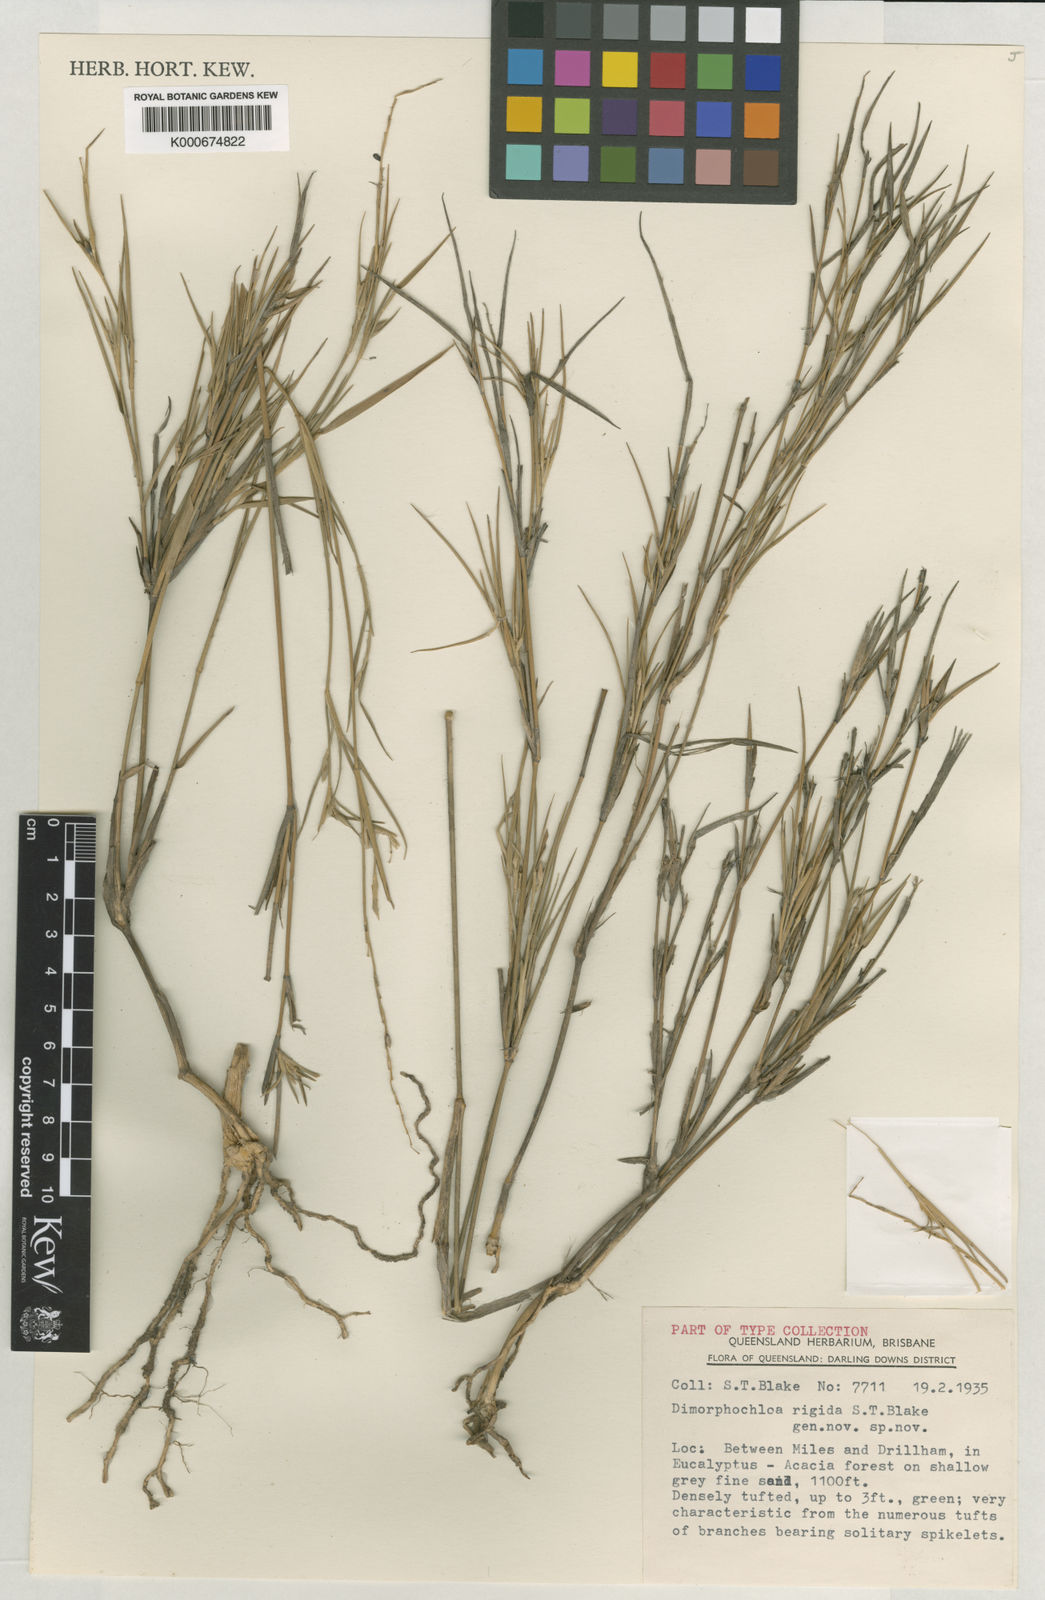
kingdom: Plantae
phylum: Tracheophyta
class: Liliopsida
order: Poales
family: Poaceae
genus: Dimorphochloa
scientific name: Dimorphochloa rigida
